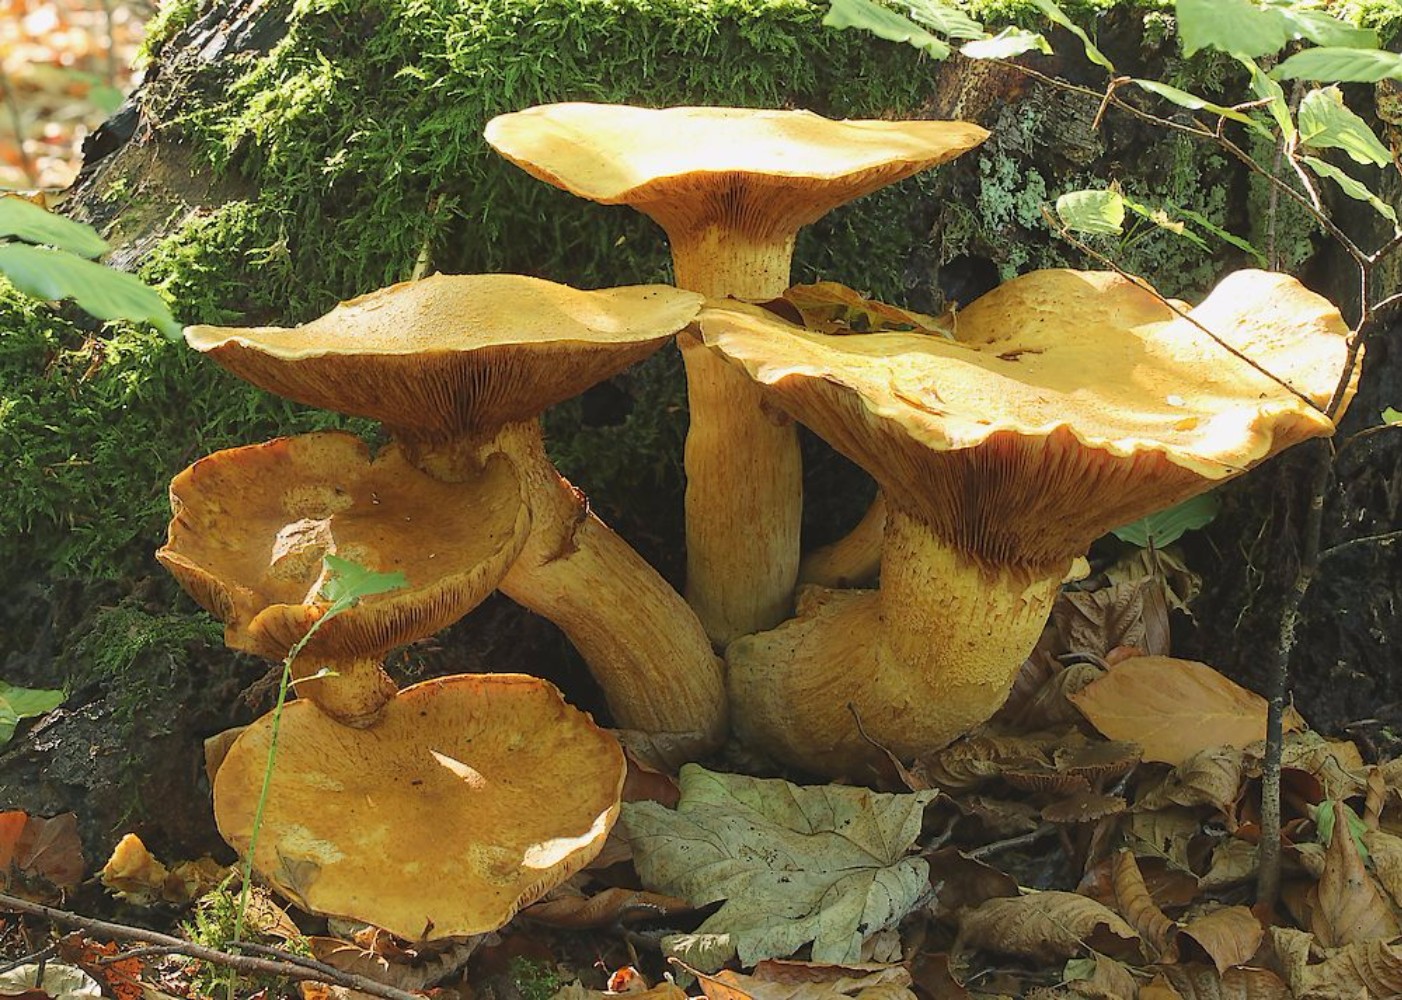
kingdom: Fungi
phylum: Basidiomycota
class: Agaricomycetes
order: Agaricales
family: Hymenogastraceae
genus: Gymnopilus
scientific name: Gymnopilus spectabilis
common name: fibret flammehat
